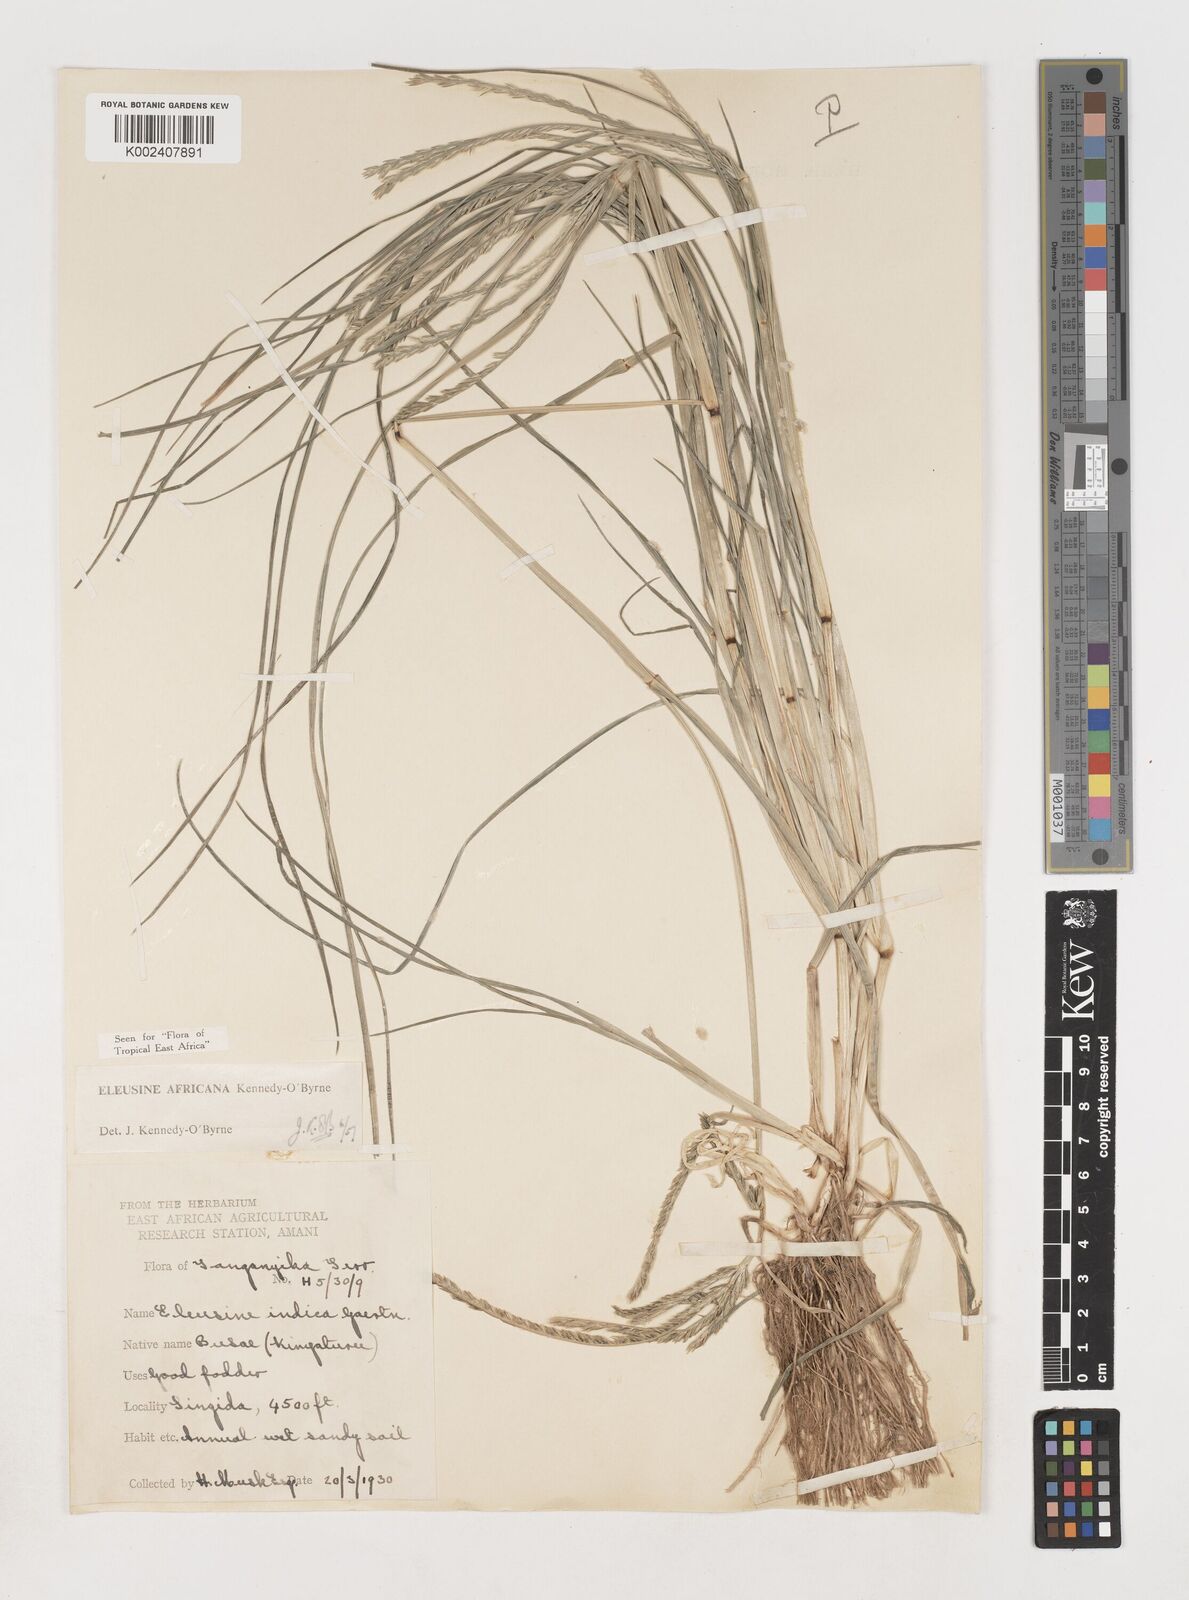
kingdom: Plantae
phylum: Tracheophyta
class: Liliopsida
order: Poales
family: Poaceae
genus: Eleusine
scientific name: Eleusine africana
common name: Wild african finger millet
